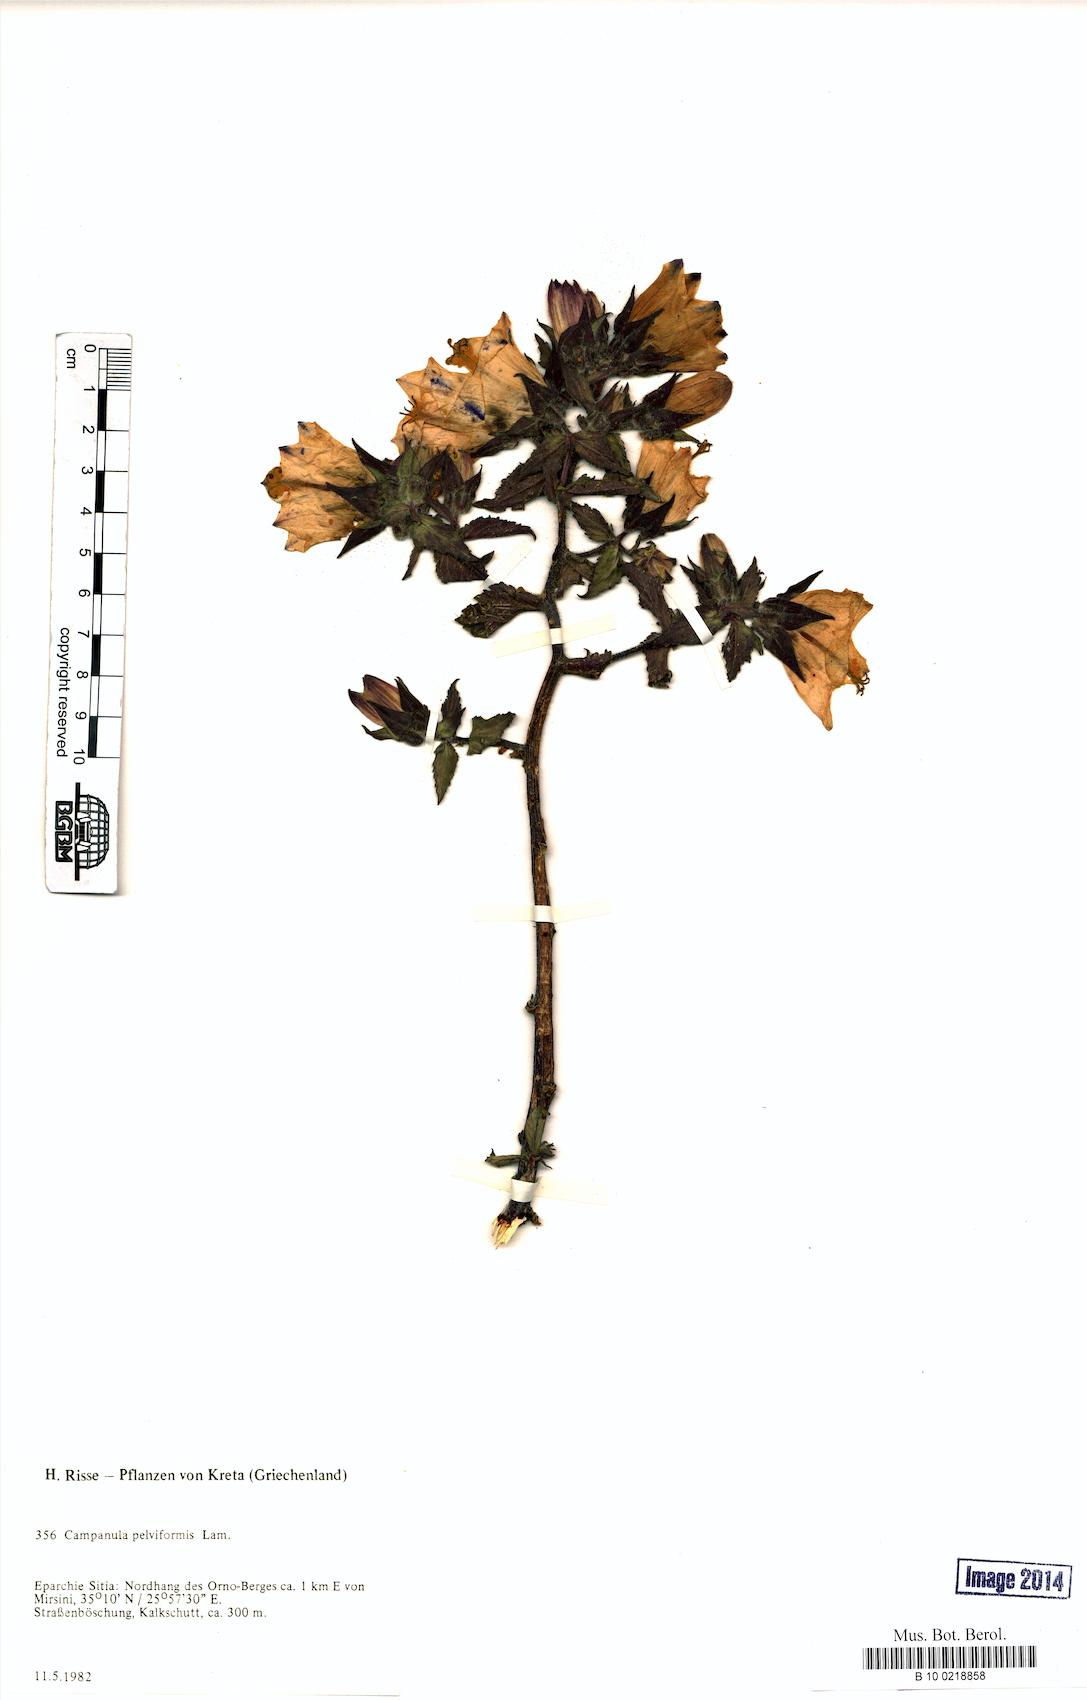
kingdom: Plantae
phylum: Tracheophyta
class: Magnoliopsida
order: Asterales
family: Campanulaceae
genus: Campanula
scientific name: Campanula pelviformis
